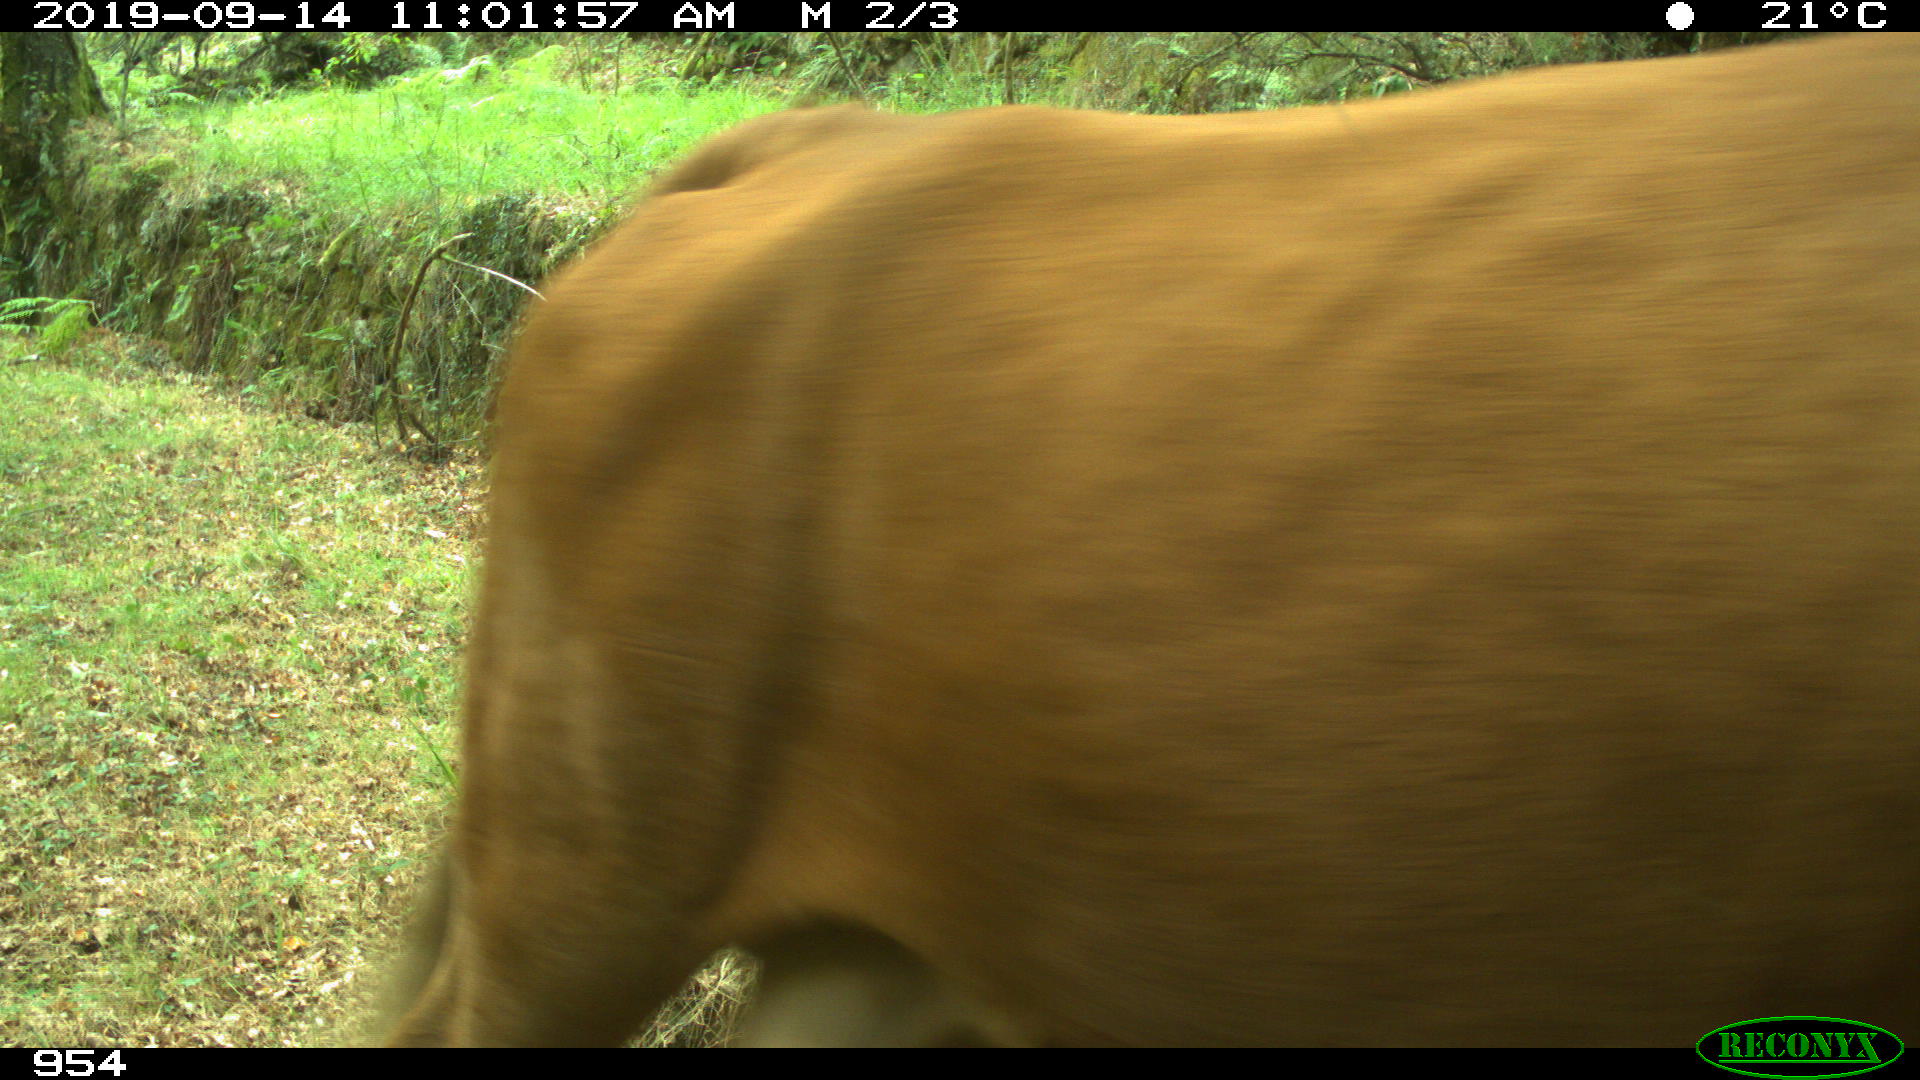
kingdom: Animalia
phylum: Chordata
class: Mammalia
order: Artiodactyla
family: Bovidae
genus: Bos
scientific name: Bos taurus
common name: Domesticated cattle
